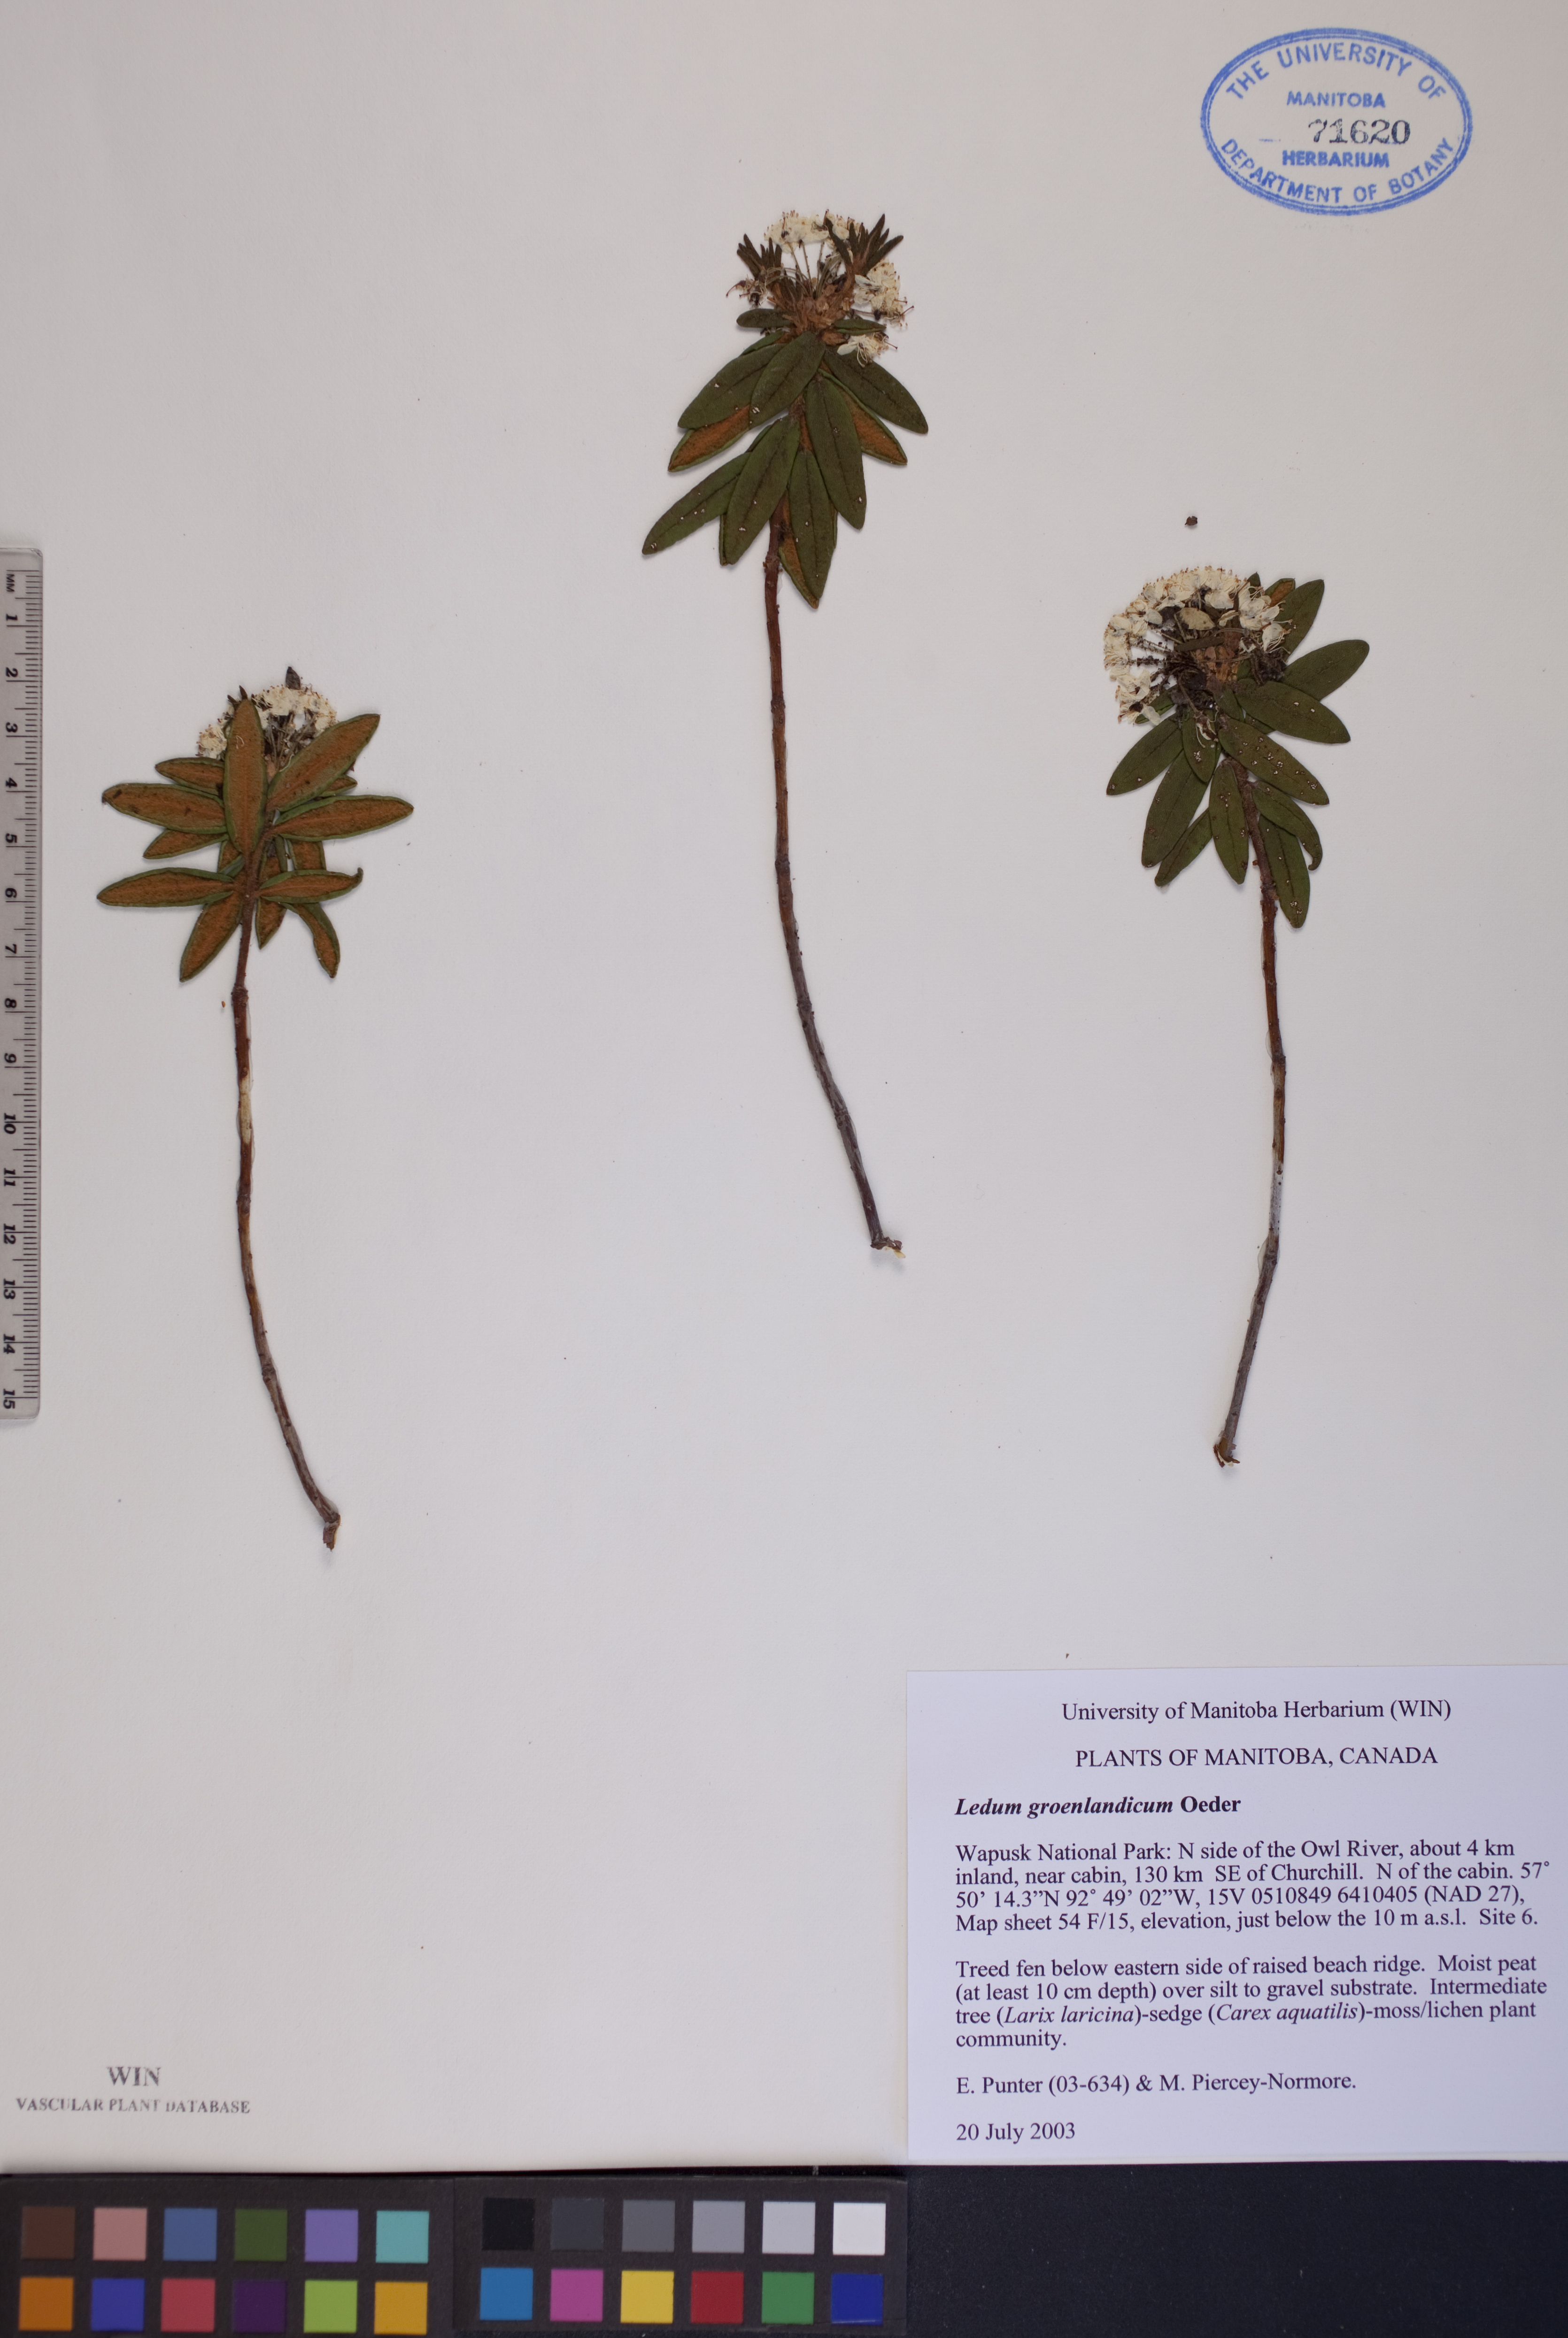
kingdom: Plantae
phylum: Tracheophyta
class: Magnoliopsida
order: Ericales
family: Ericaceae
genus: Rhododendron
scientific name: Rhododendron groenlandicum
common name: Bog labrador tea
